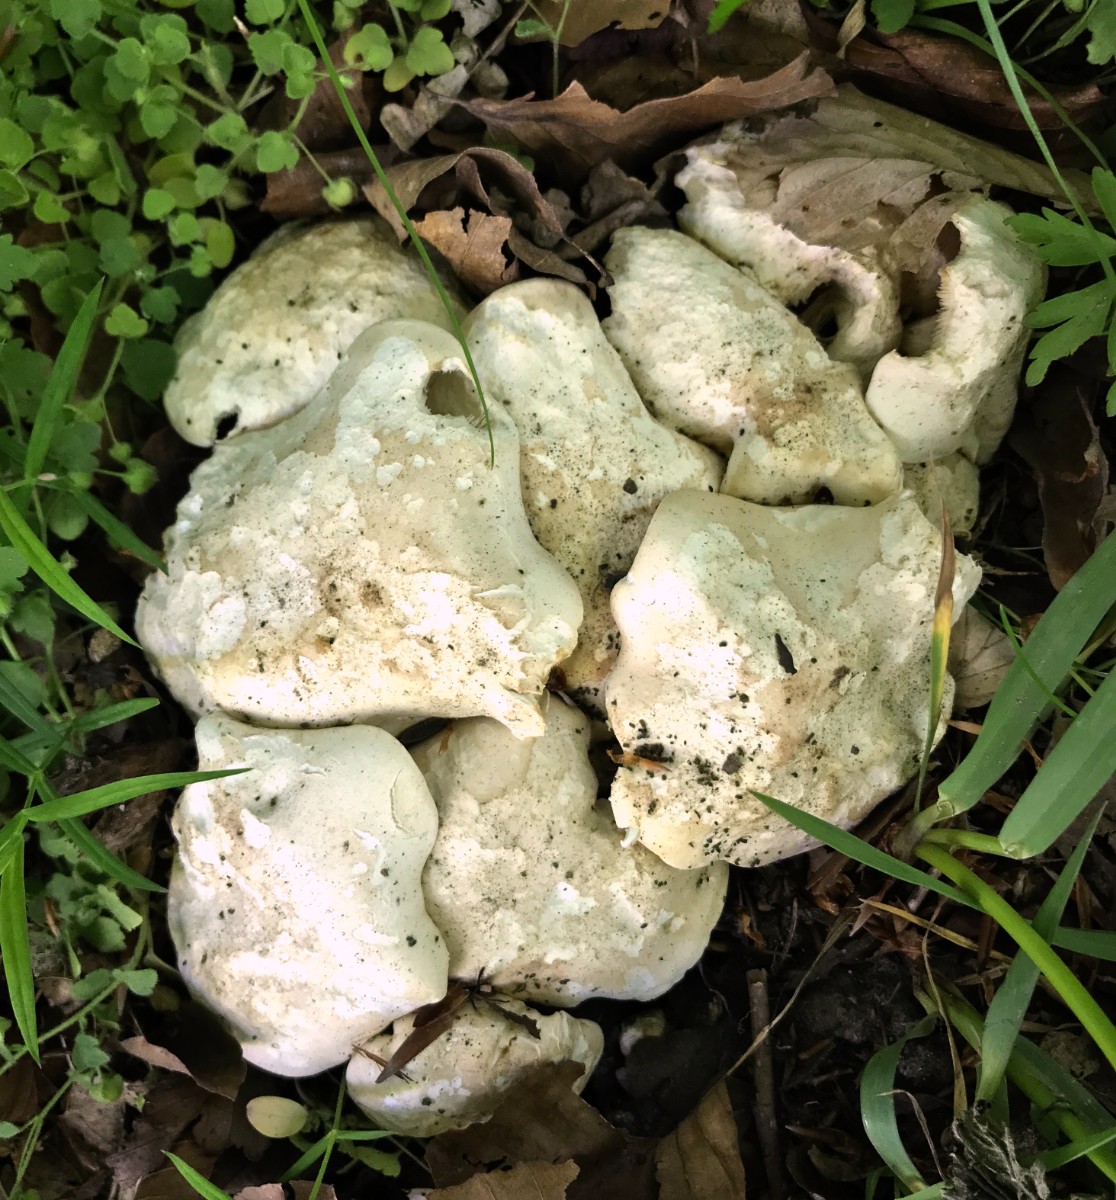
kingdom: Fungi
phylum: Basidiomycota
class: Agaricomycetes
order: Agaricales
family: Lyophyllaceae
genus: Calocybe
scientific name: Calocybe gambosa
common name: vårmusseron
